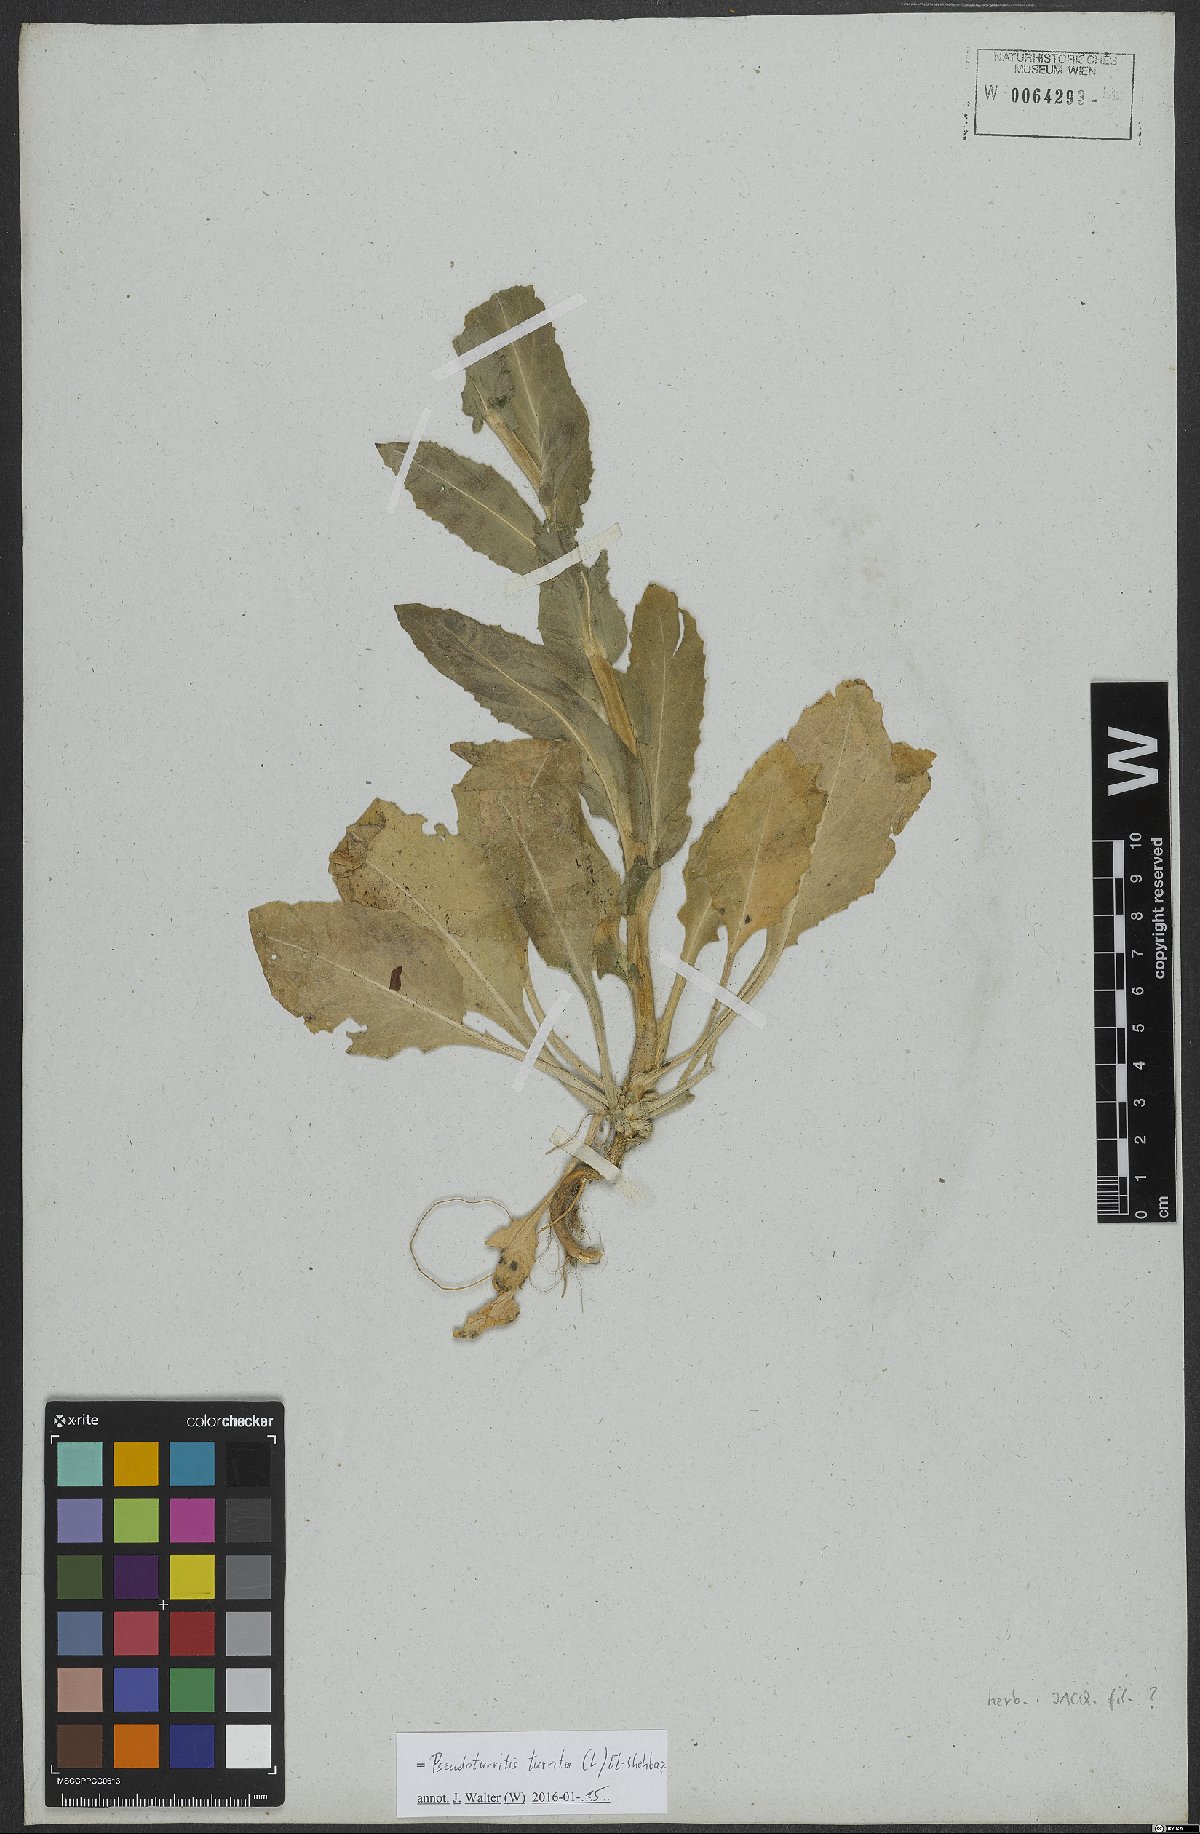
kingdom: Plantae
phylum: Tracheophyta
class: Magnoliopsida
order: Brassicales
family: Brassicaceae
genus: Pseudoturritis
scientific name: Pseudoturritis turrita
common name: Tower cress
